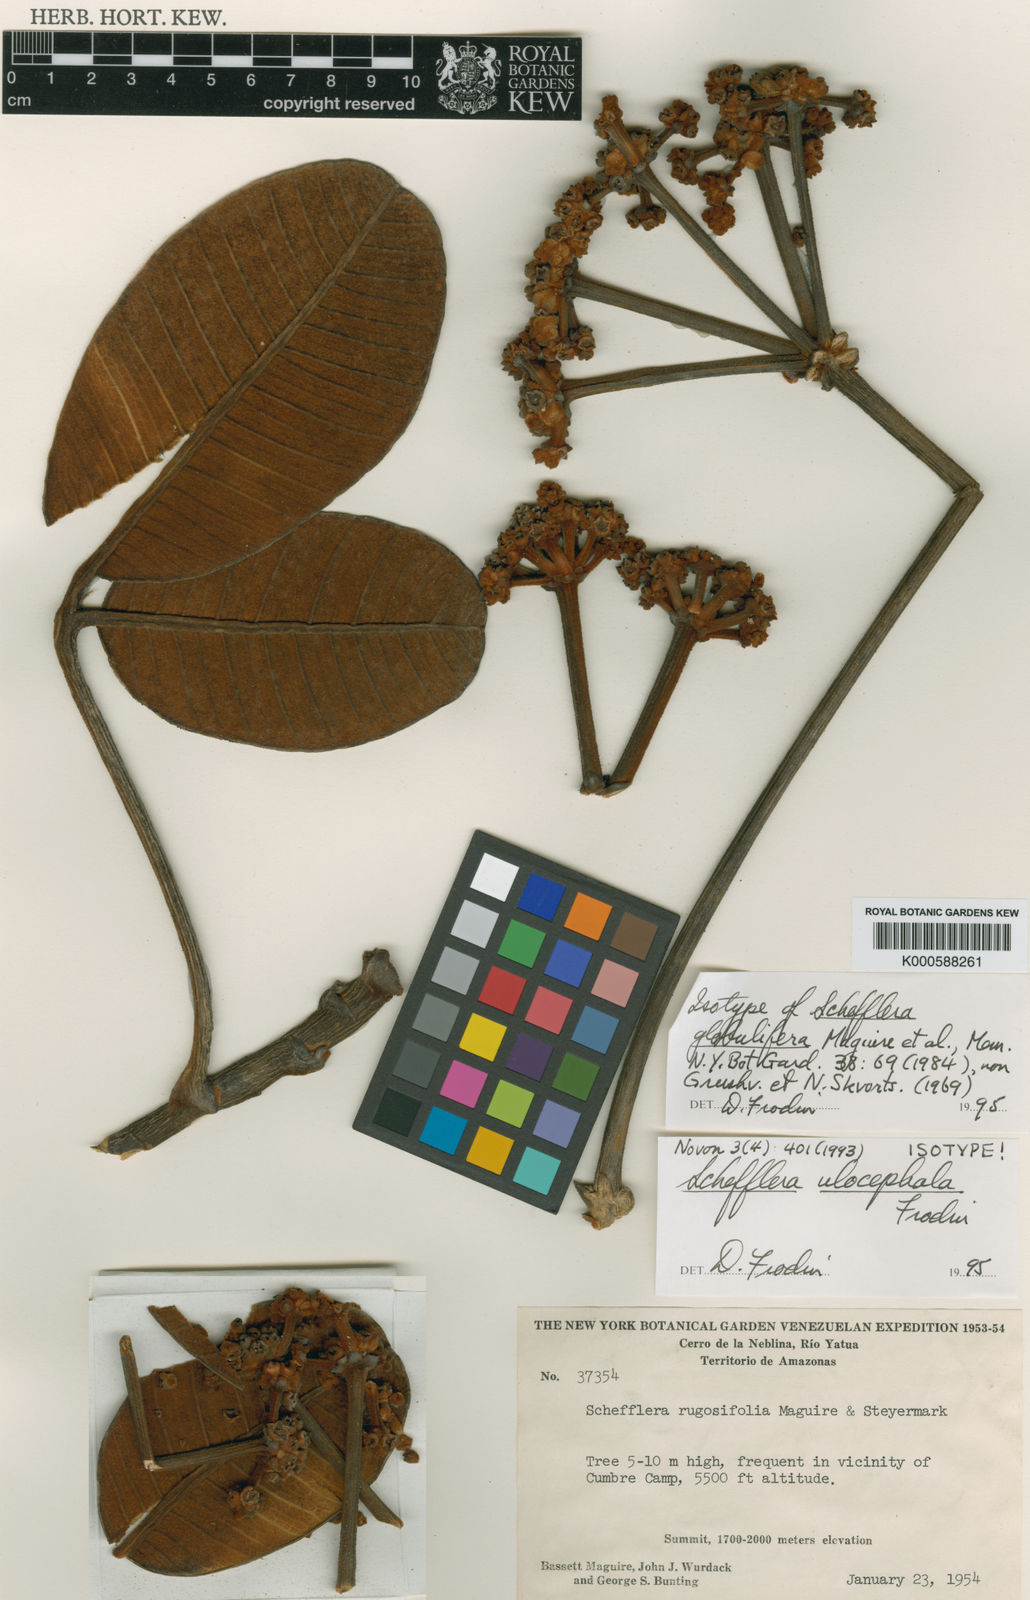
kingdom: Plantae
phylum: Tracheophyta
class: Magnoliopsida
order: Apiales
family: Araliaceae
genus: Crepinella
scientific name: Crepinella
